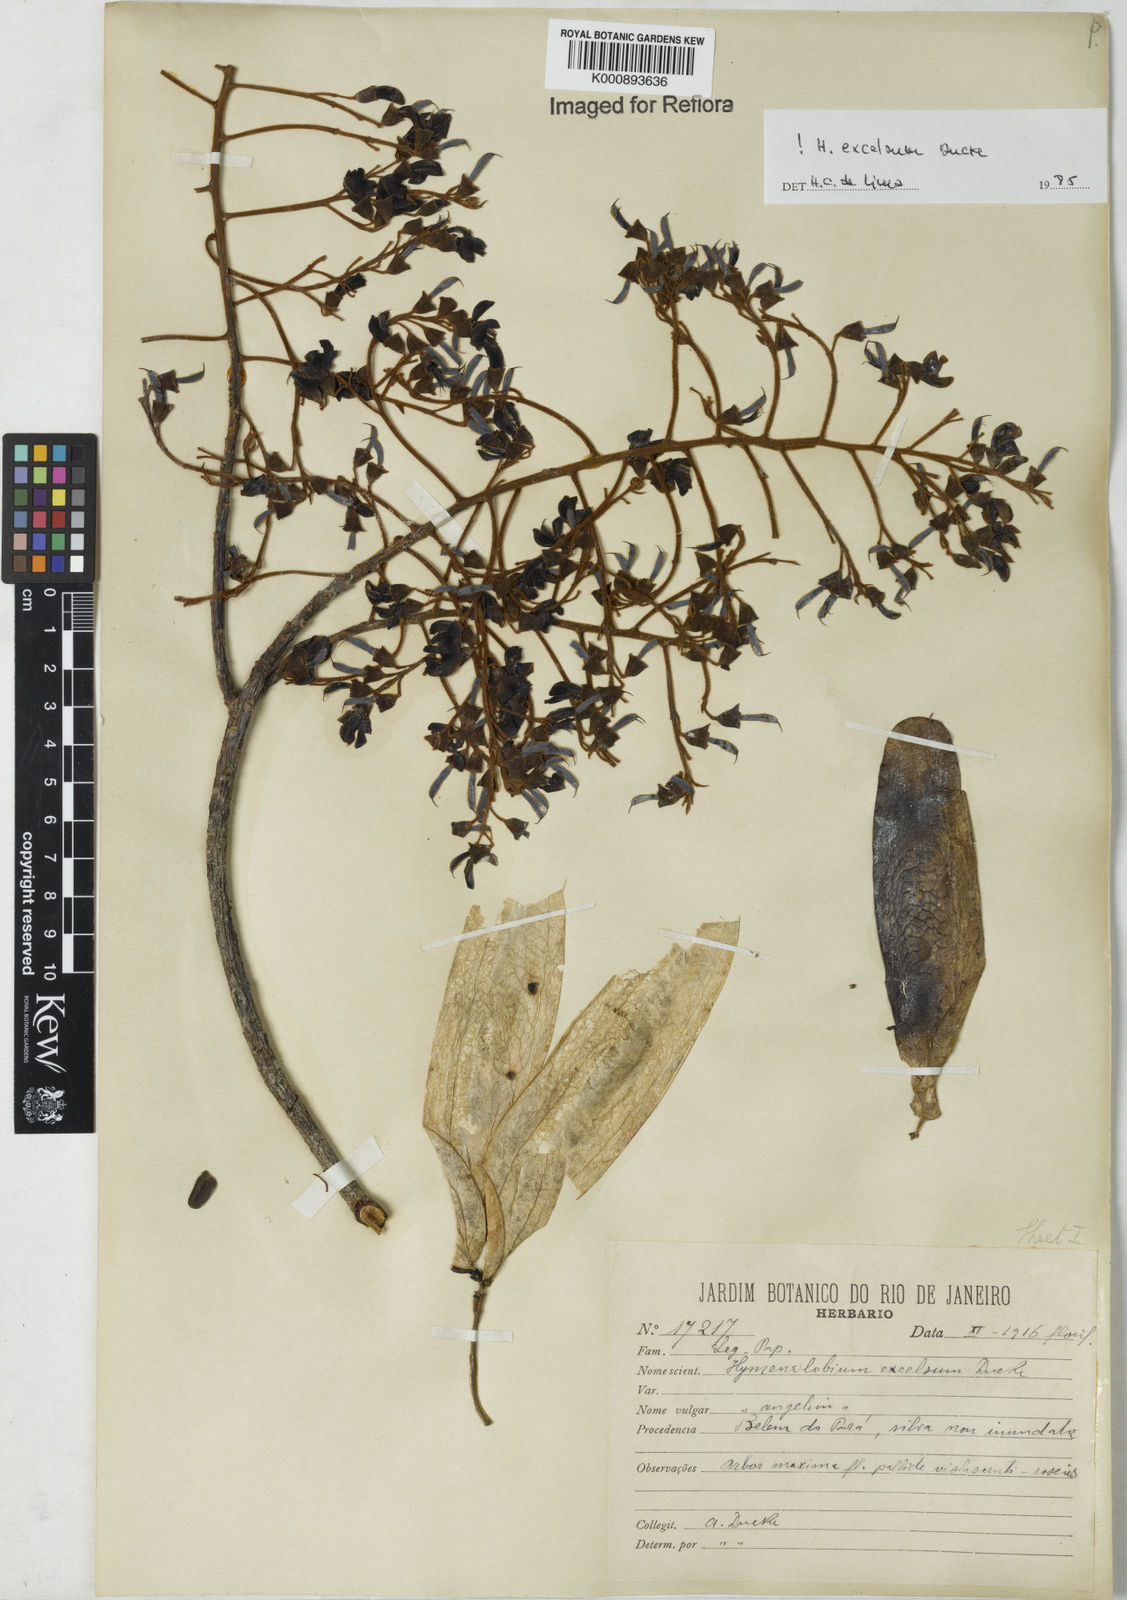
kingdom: Plantae
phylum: Tracheophyta
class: Magnoliopsida
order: Fabales
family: Fabaceae
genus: Hymenolobium
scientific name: Hymenolobium excelsum
